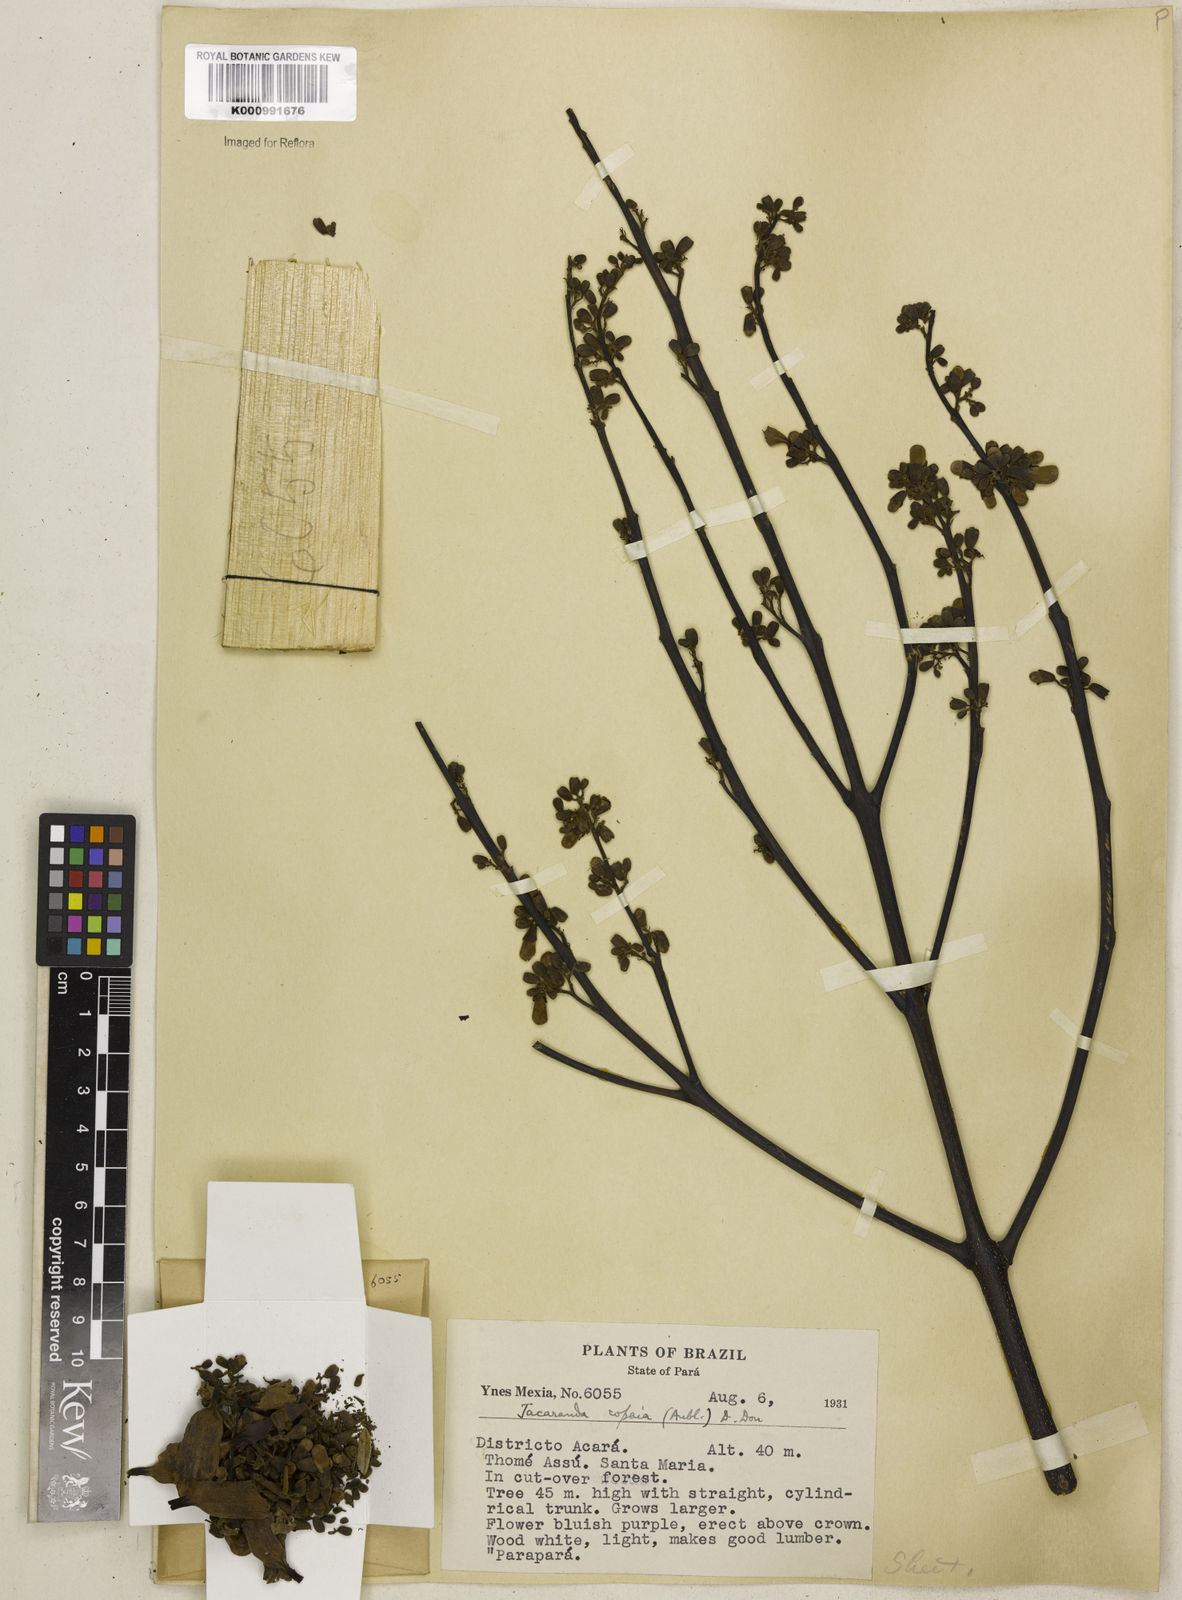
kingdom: Plantae
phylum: Tracheophyta
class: Magnoliopsida
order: Lamiales
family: Bignoniaceae
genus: Jacaranda
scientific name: Jacaranda
